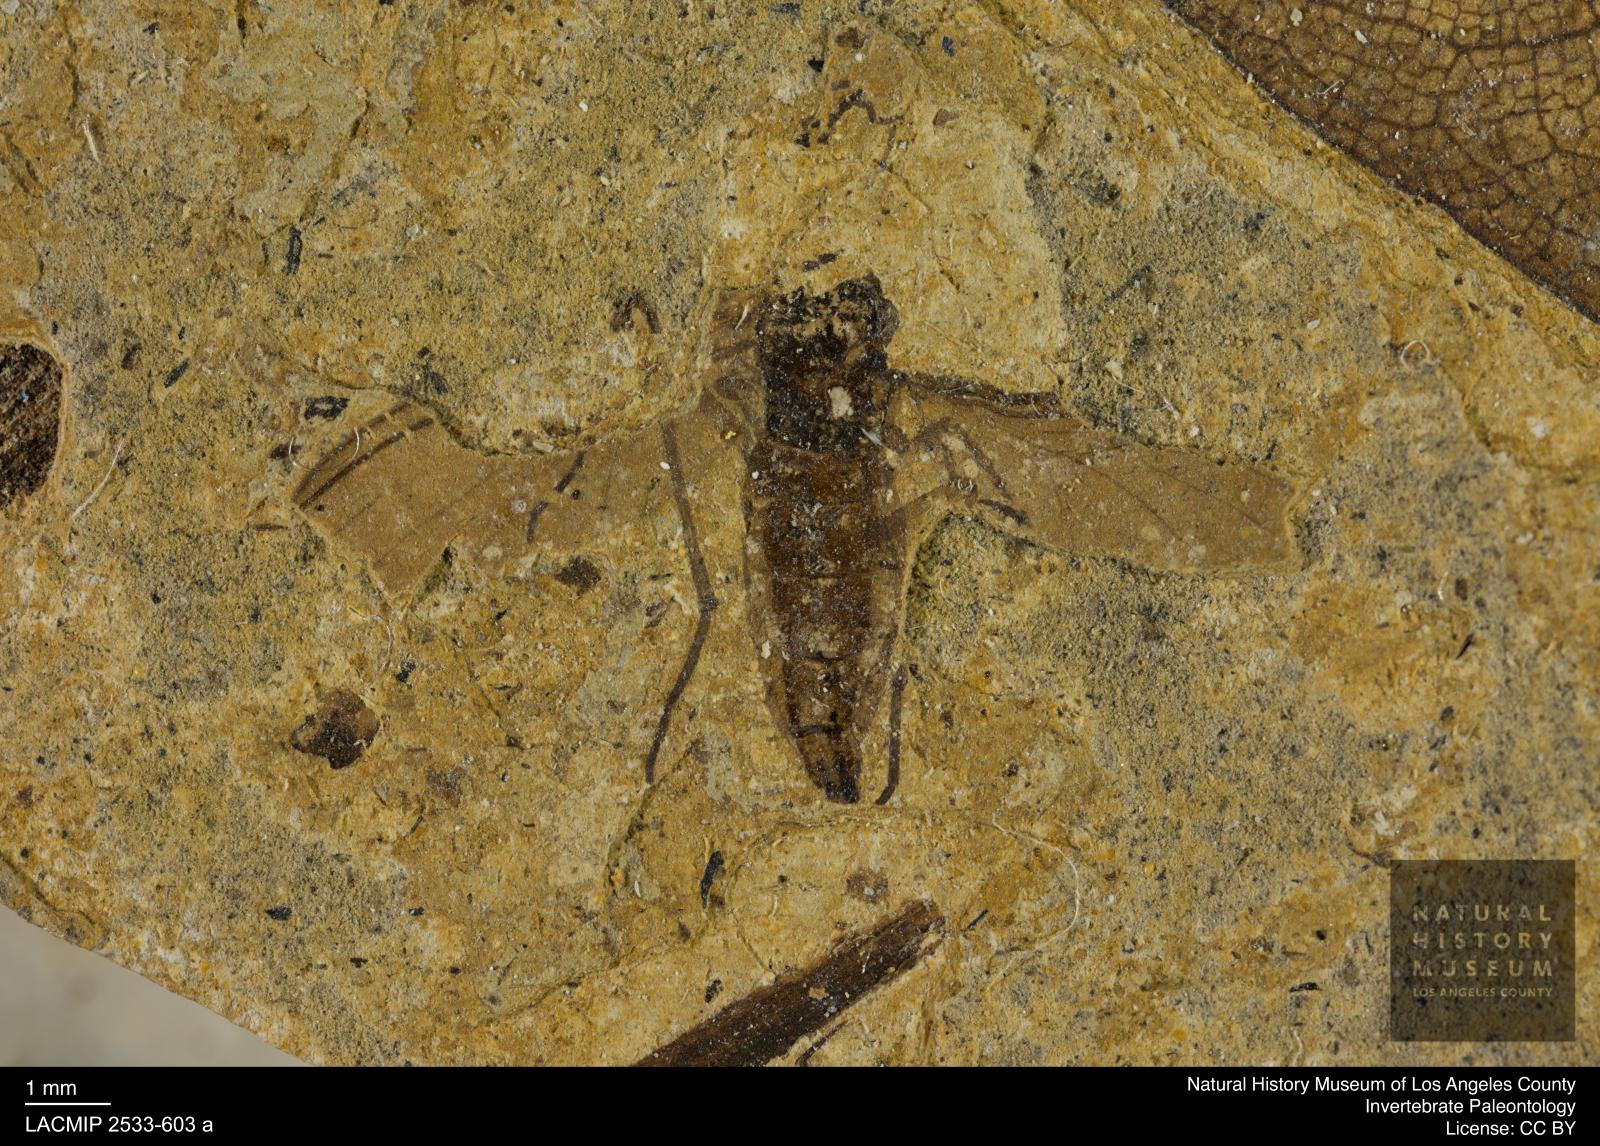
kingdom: Animalia
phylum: Arthropoda
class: Insecta
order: Diptera
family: Sciaridae
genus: Sciara
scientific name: Sciara pelidua
